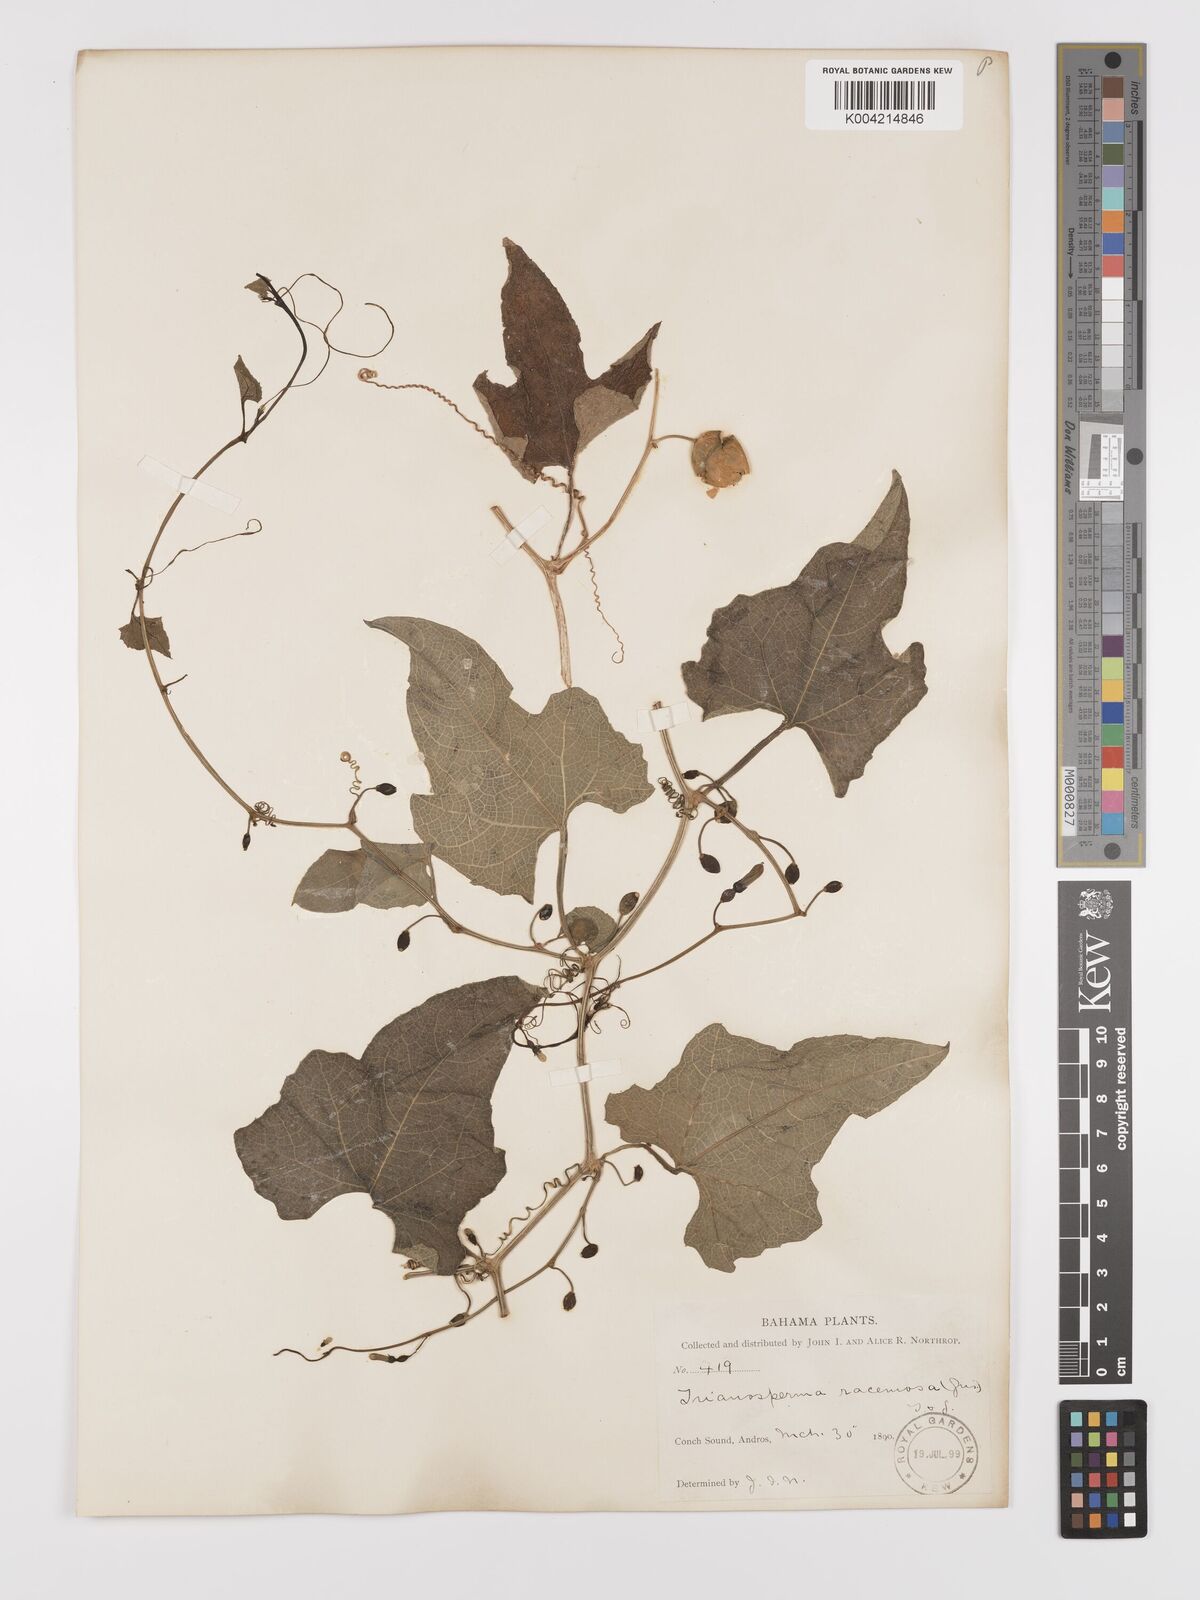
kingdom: Plantae
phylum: Tracheophyta
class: Magnoliopsida
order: Cucurbitales
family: Cucurbitaceae
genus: Cayaponia
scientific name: Cayaponia americana
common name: American melonleaf
